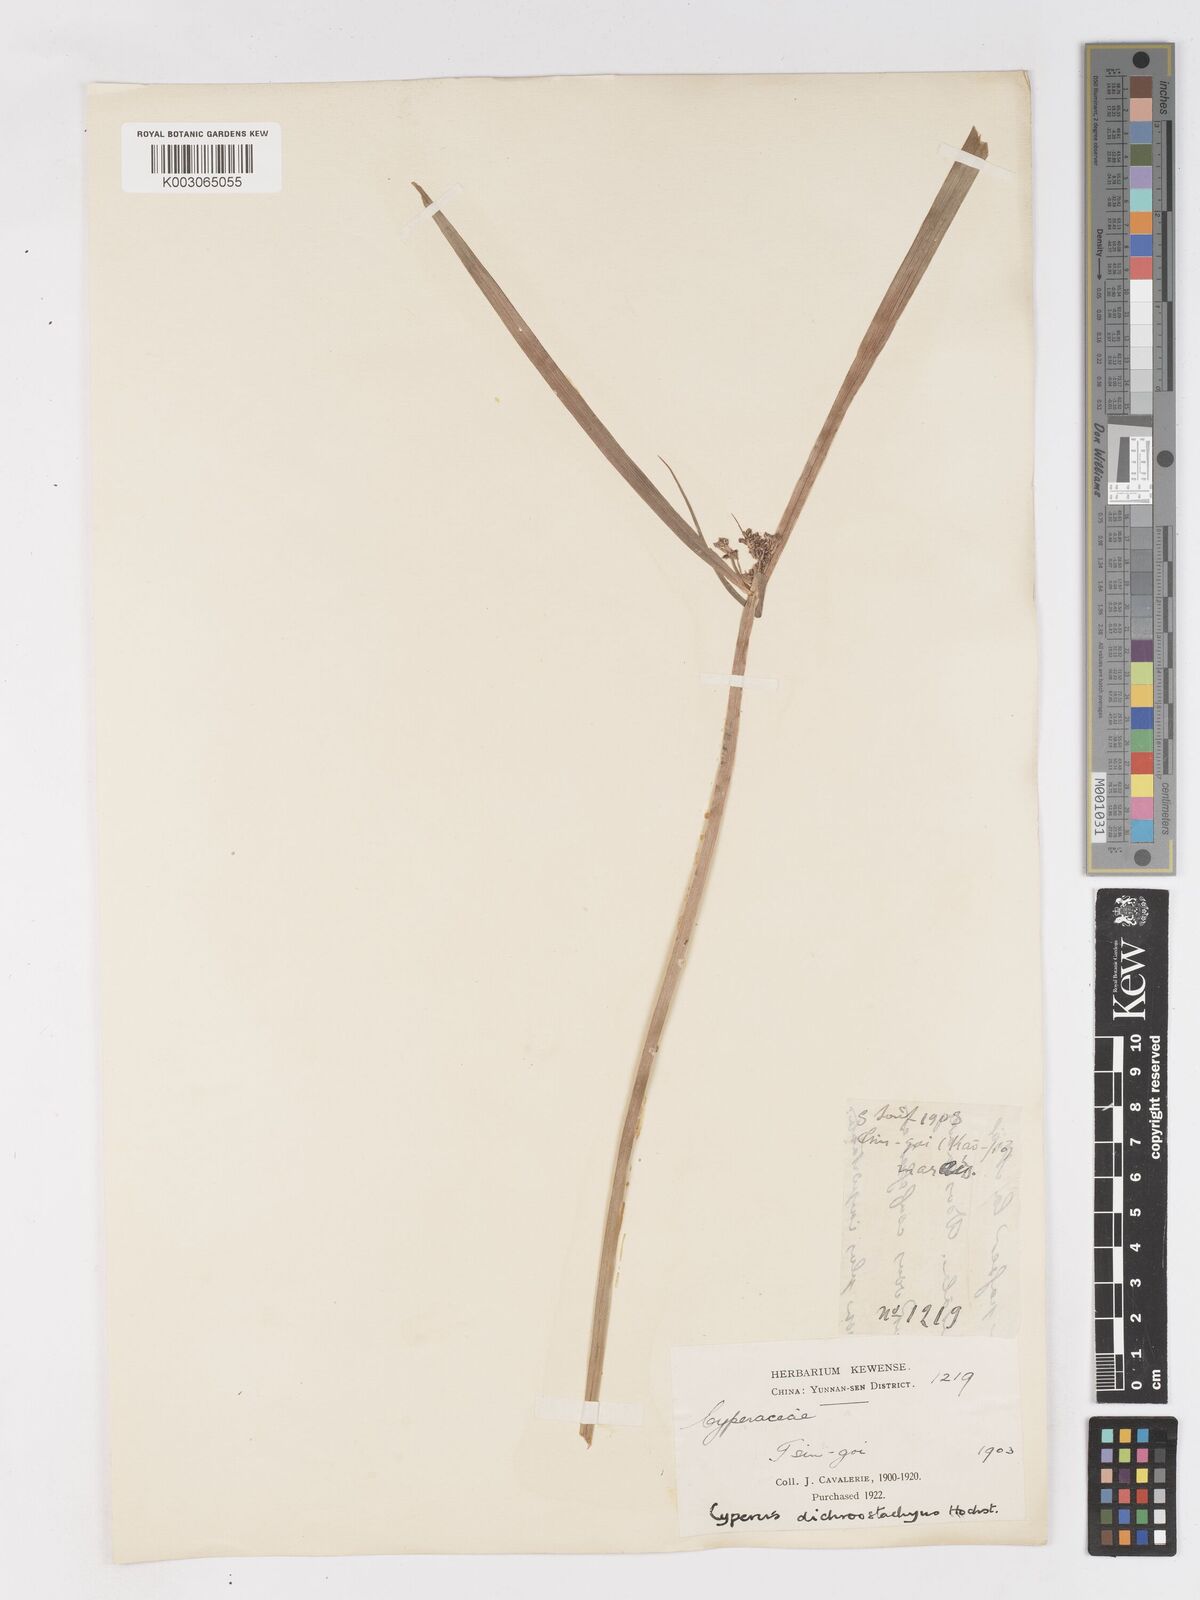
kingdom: Plantae
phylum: Tracheophyta
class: Liliopsida
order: Poales
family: Cyperaceae
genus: Cyperus
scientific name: Cyperus dichrostachyus
